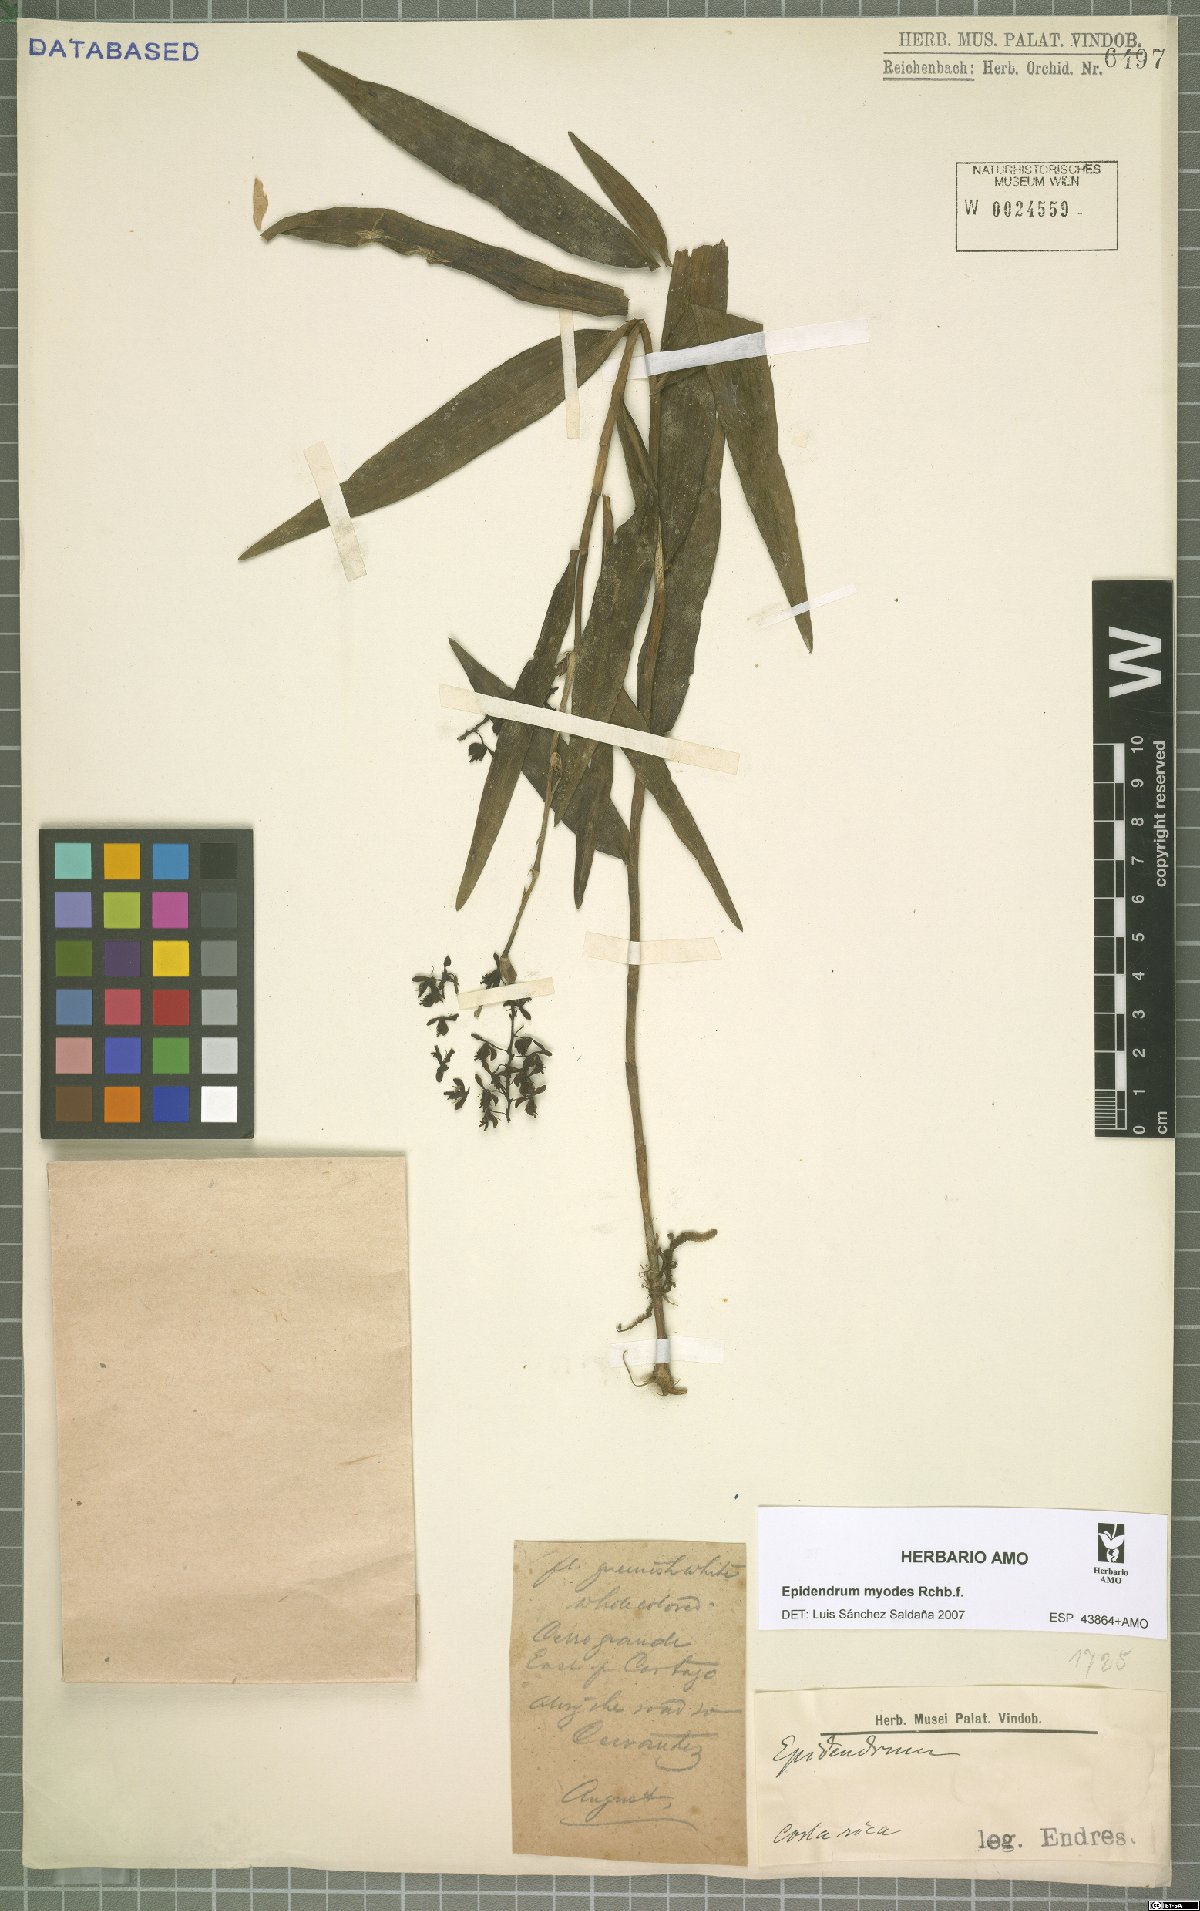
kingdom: Plantae
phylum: Tracheophyta
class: Liliopsida
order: Asparagales
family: Orchidaceae
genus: Epidendrum
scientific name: Epidendrum myodes
